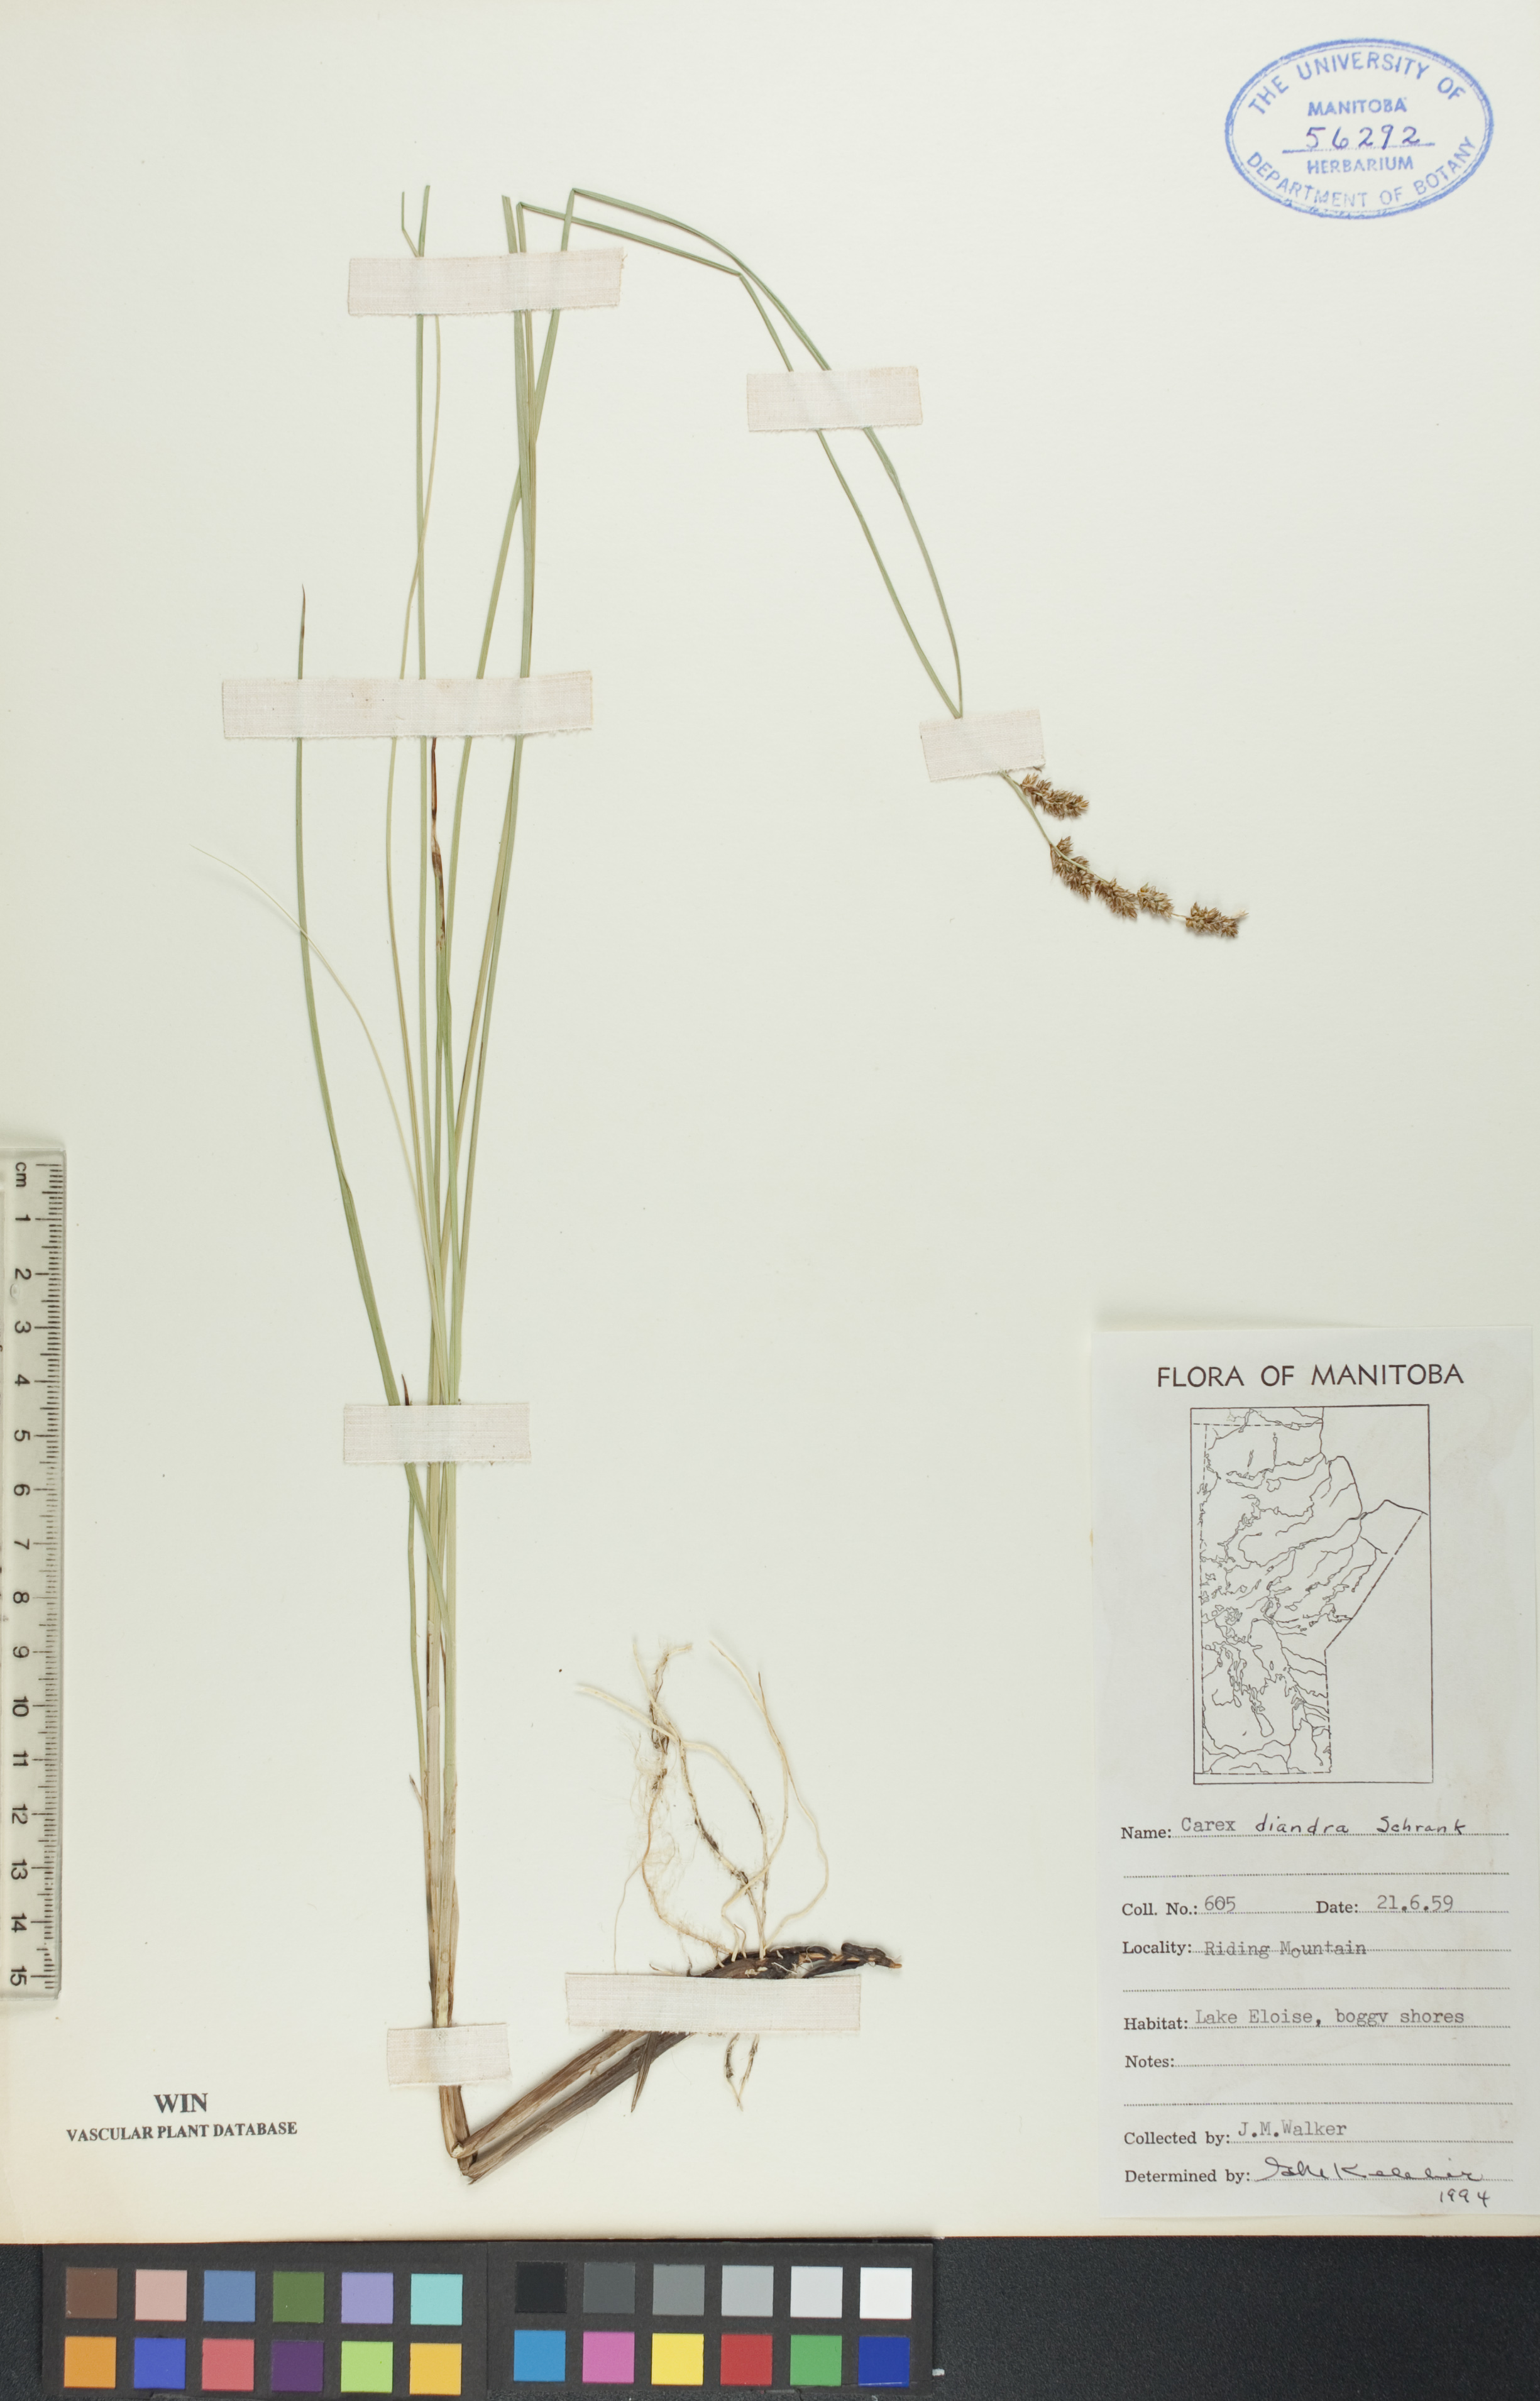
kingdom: Plantae
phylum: Tracheophyta
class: Liliopsida
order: Poales
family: Cyperaceae
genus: Carex
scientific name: Carex diandra
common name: Lesser tussock-sedge
